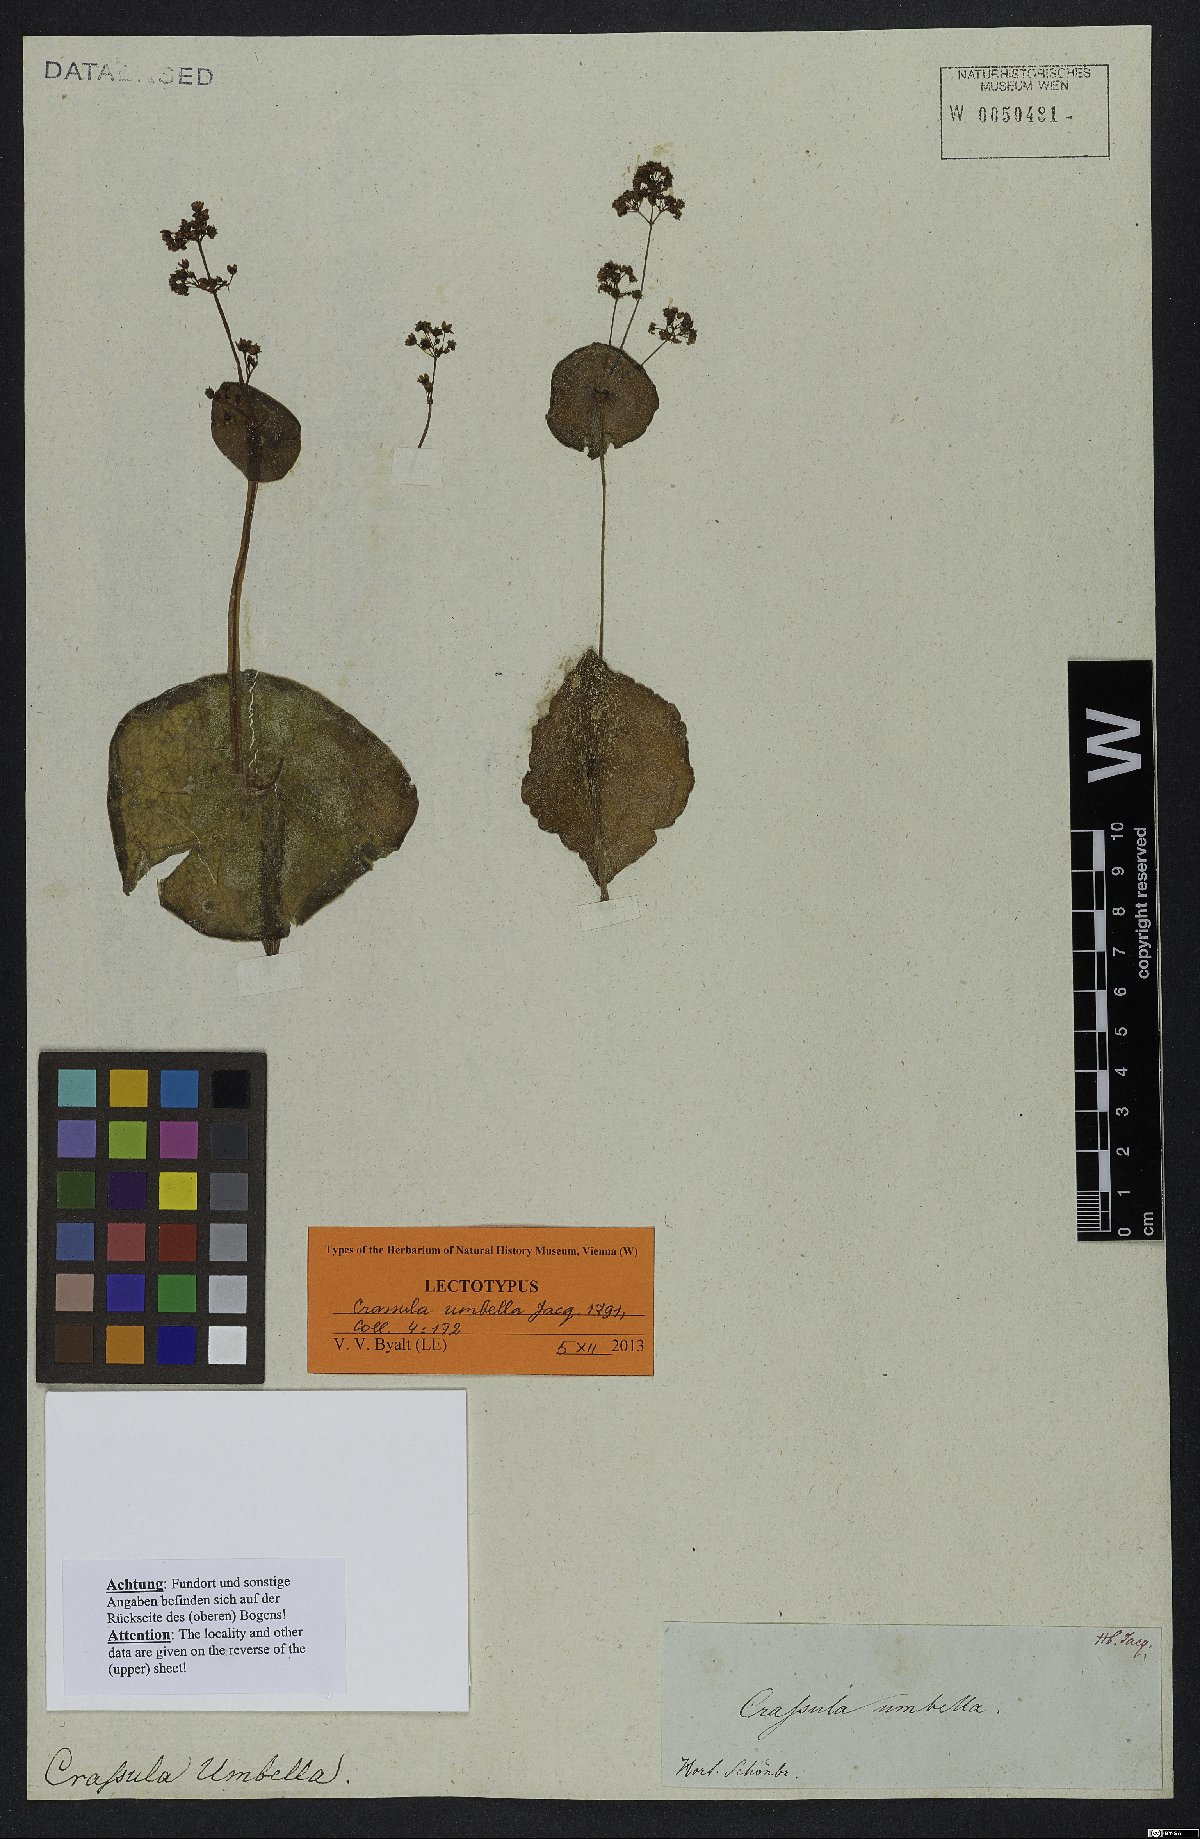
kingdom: Plantae
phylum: Tracheophyta
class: Magnoliopsida
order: Saxifragales
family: Crassulaceae
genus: Crassula
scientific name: Crassula umbella
